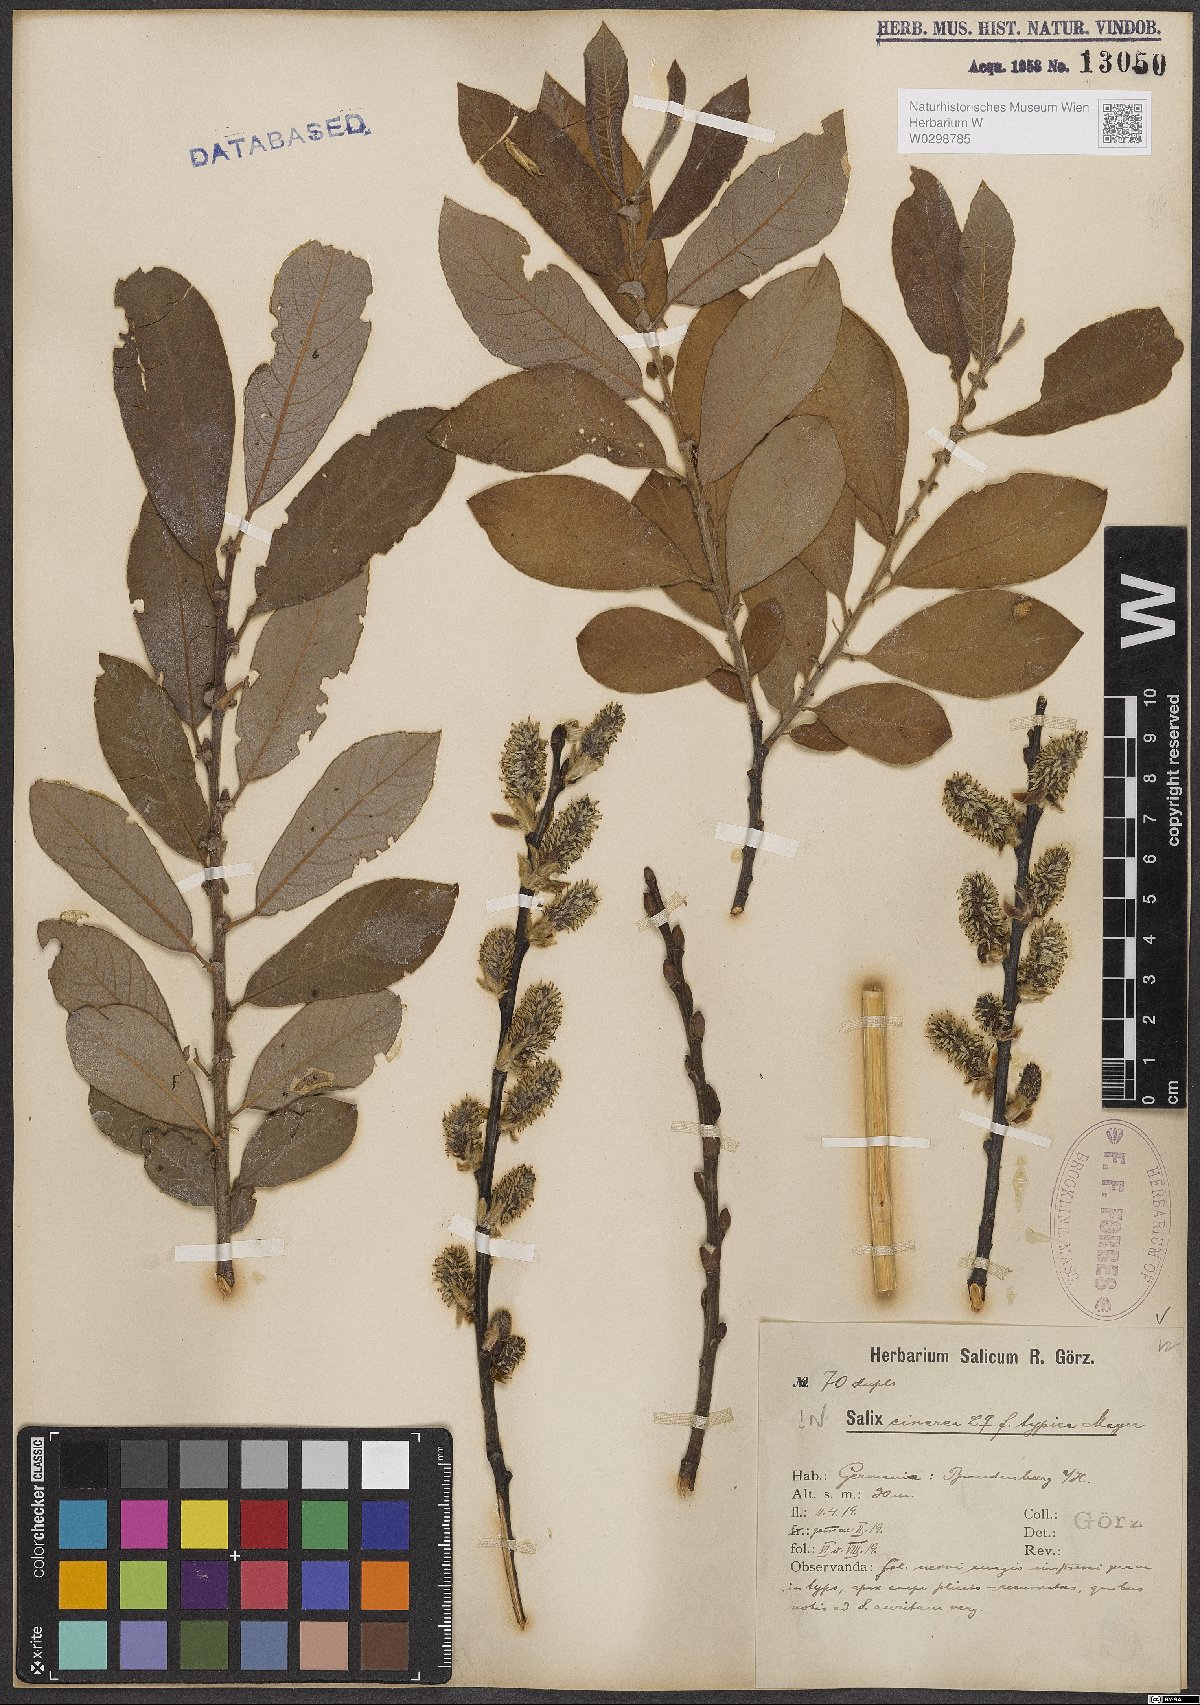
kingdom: Plantae
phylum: Tracheophyta
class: Magnoliopsida
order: Malpighiales
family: Salicaceae
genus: Salix
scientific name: Salix cinerea
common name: Common sallow
